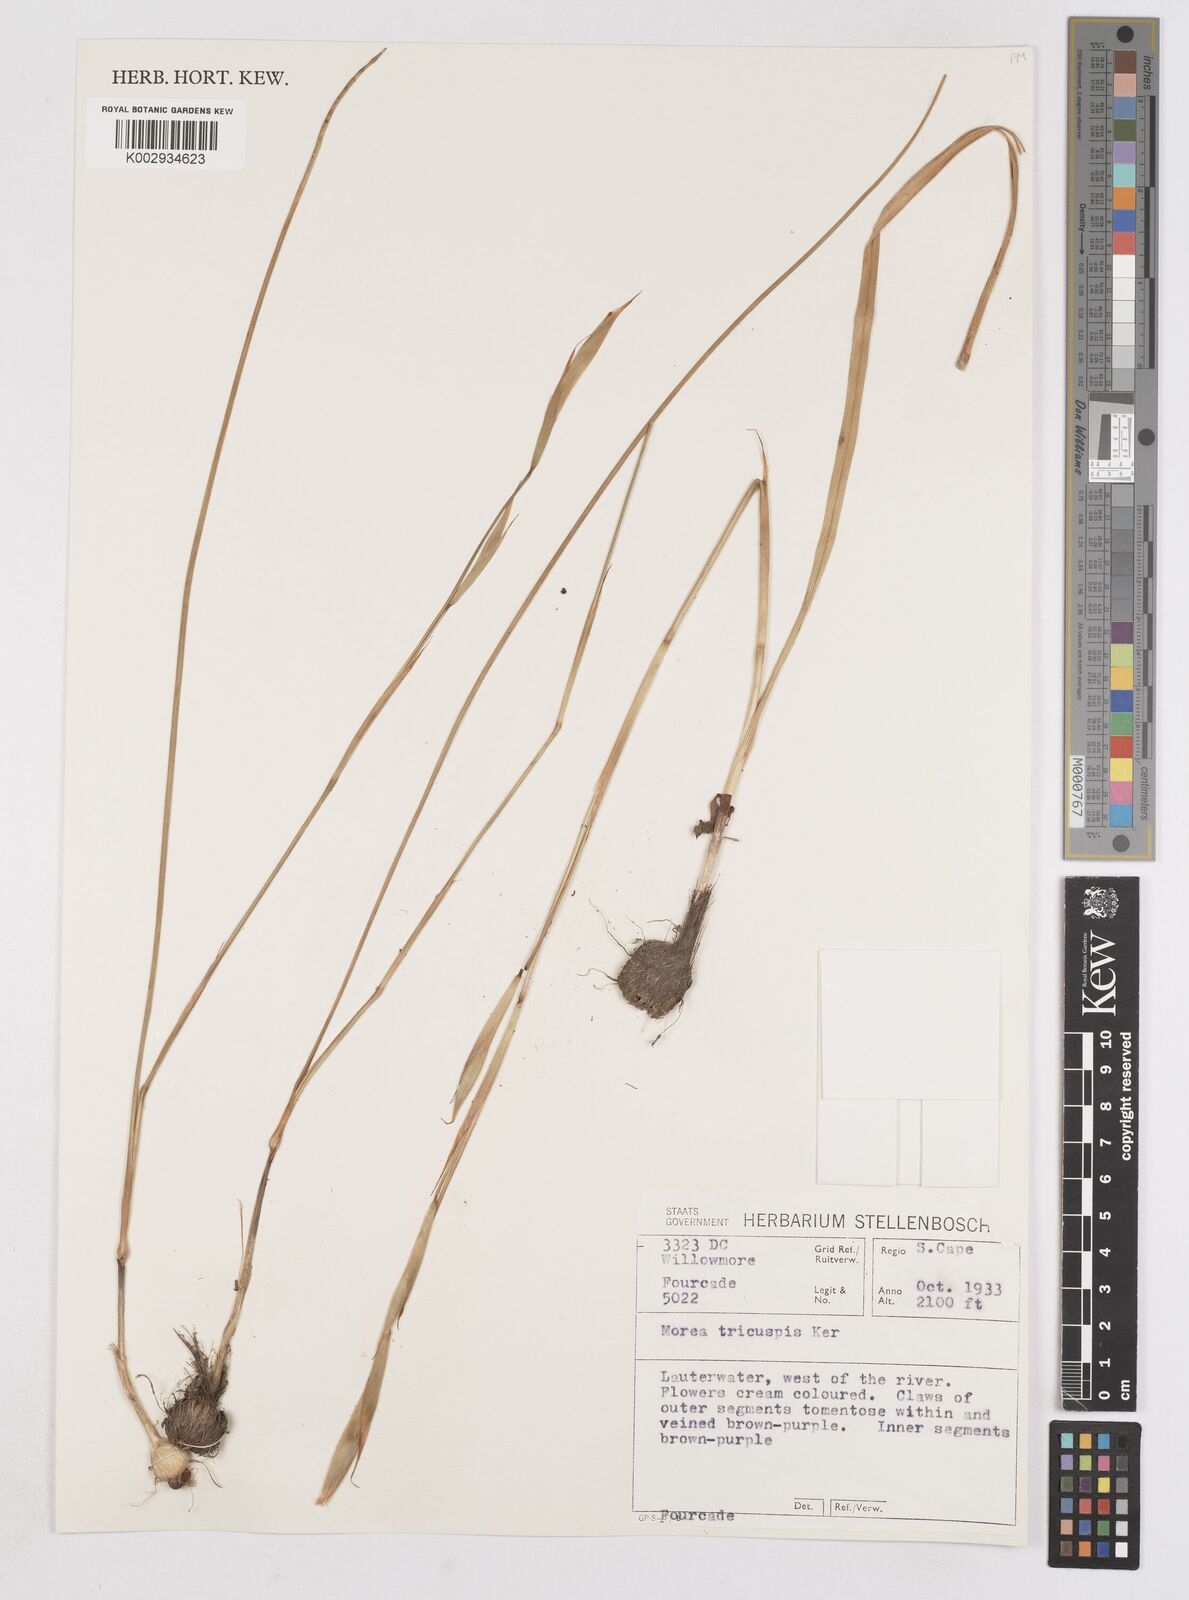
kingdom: Plantae
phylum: Tracheophyta
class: Liliopsida
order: Asparagales
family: Iridaceae
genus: Moraea
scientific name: Moraea tricuspidata
